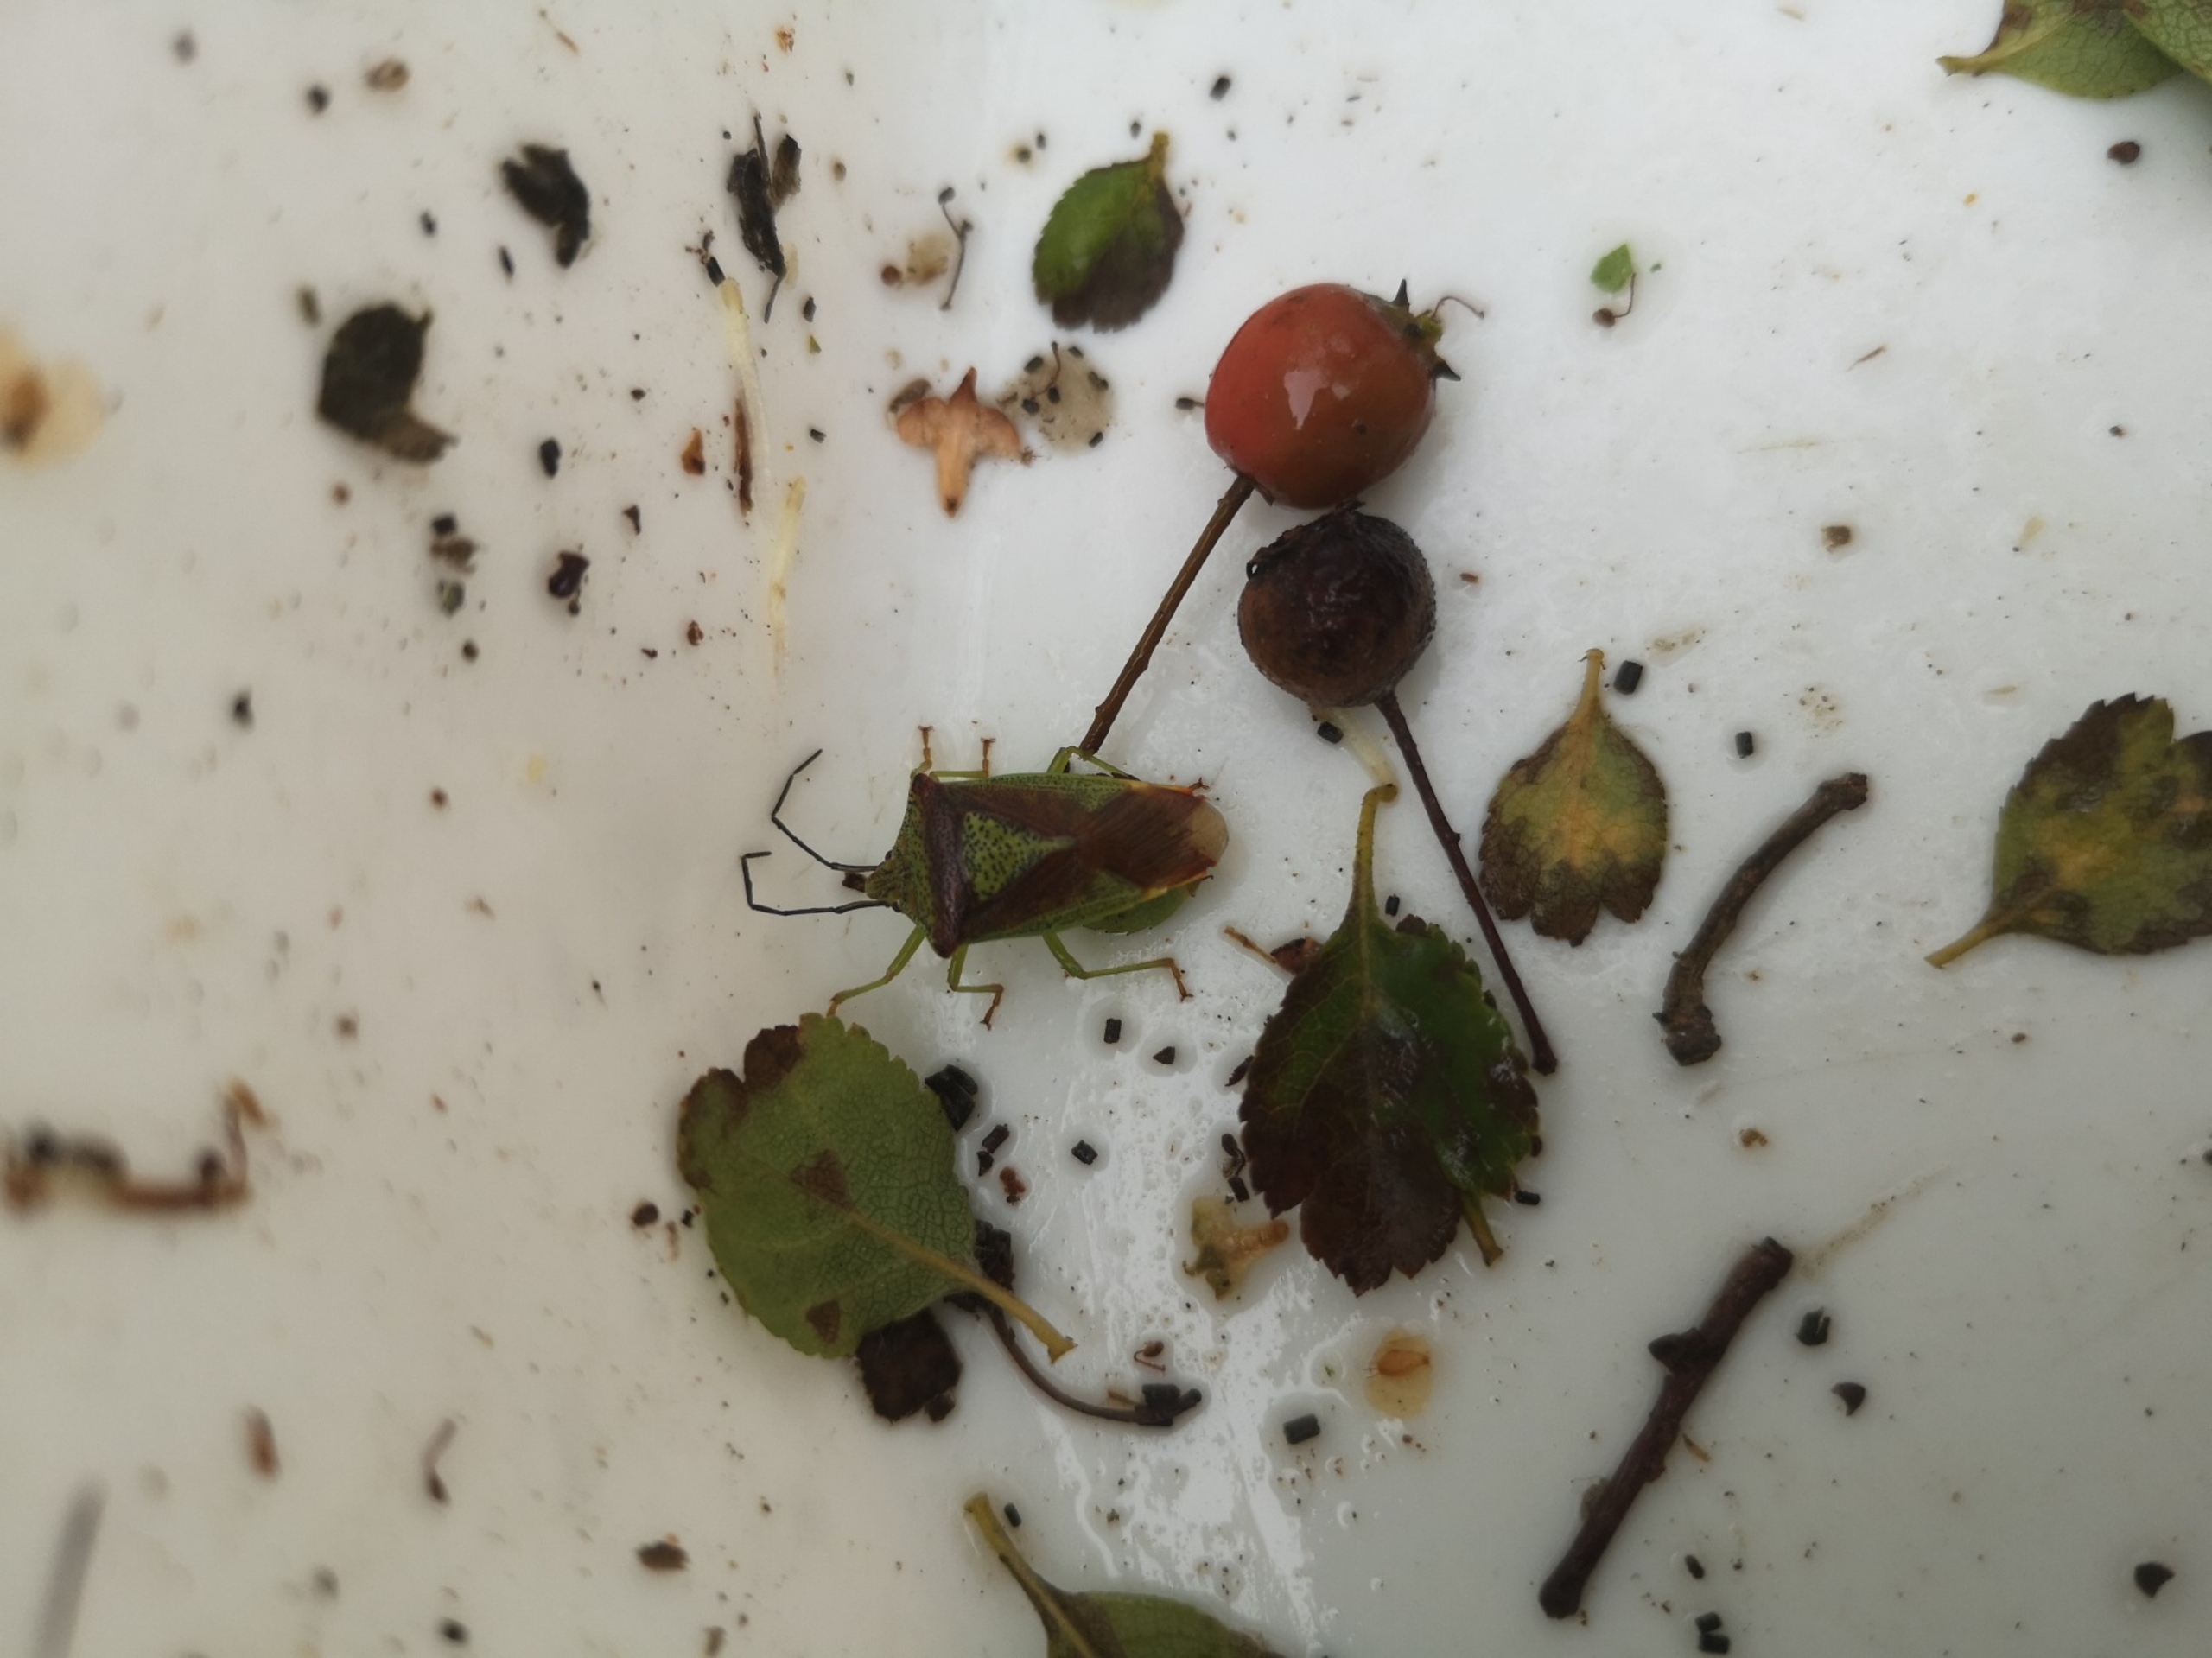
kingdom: Animalia
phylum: Arthropoda
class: Insecta
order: Hemiptera
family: Acanthosomatidae
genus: Acanthosoma
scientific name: Acanthosoma haemorrhoidale
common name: Stor løvtæge
